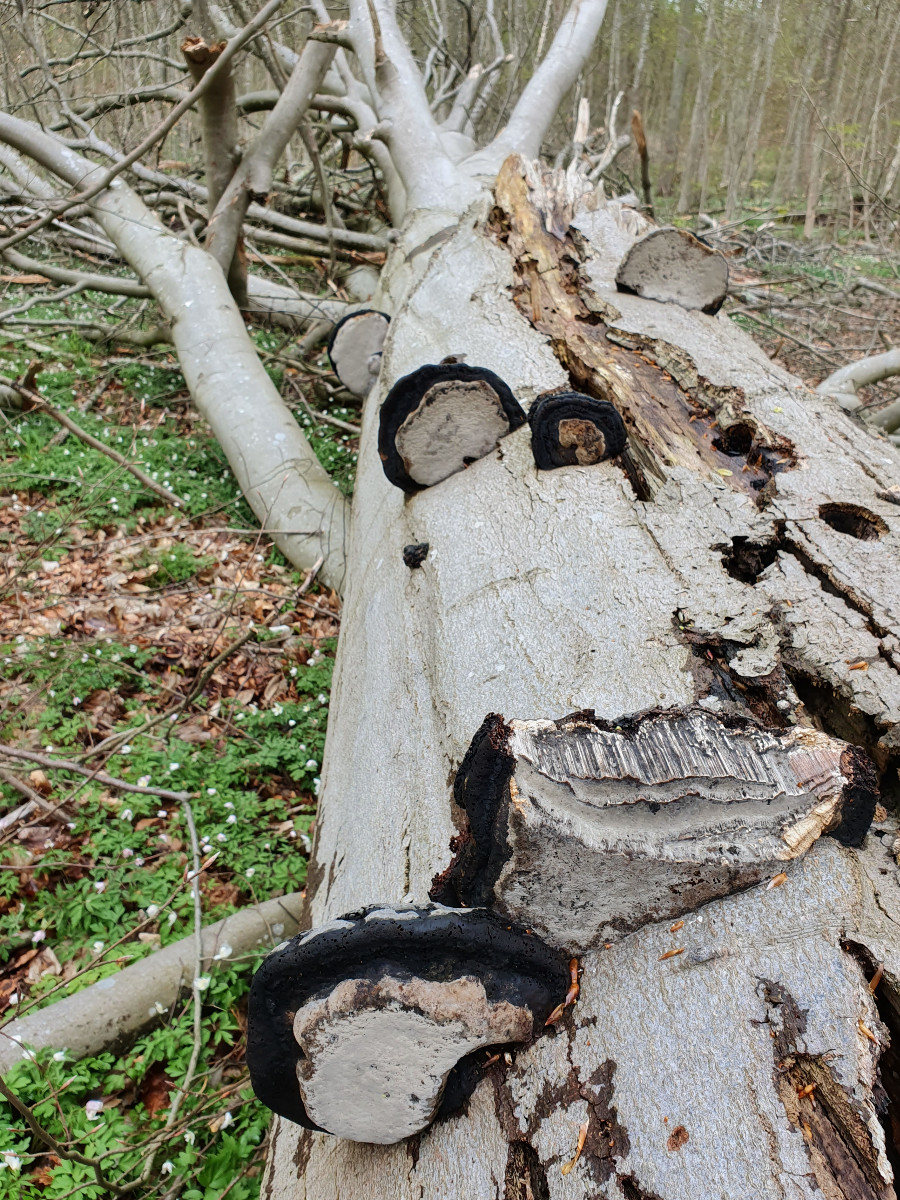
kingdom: Fungi
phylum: Basidiomycota
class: Agaricomycetes
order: Polyporales
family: Polyporaceae
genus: Fomes
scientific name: Fomes fomentarius
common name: tøndersvamp
